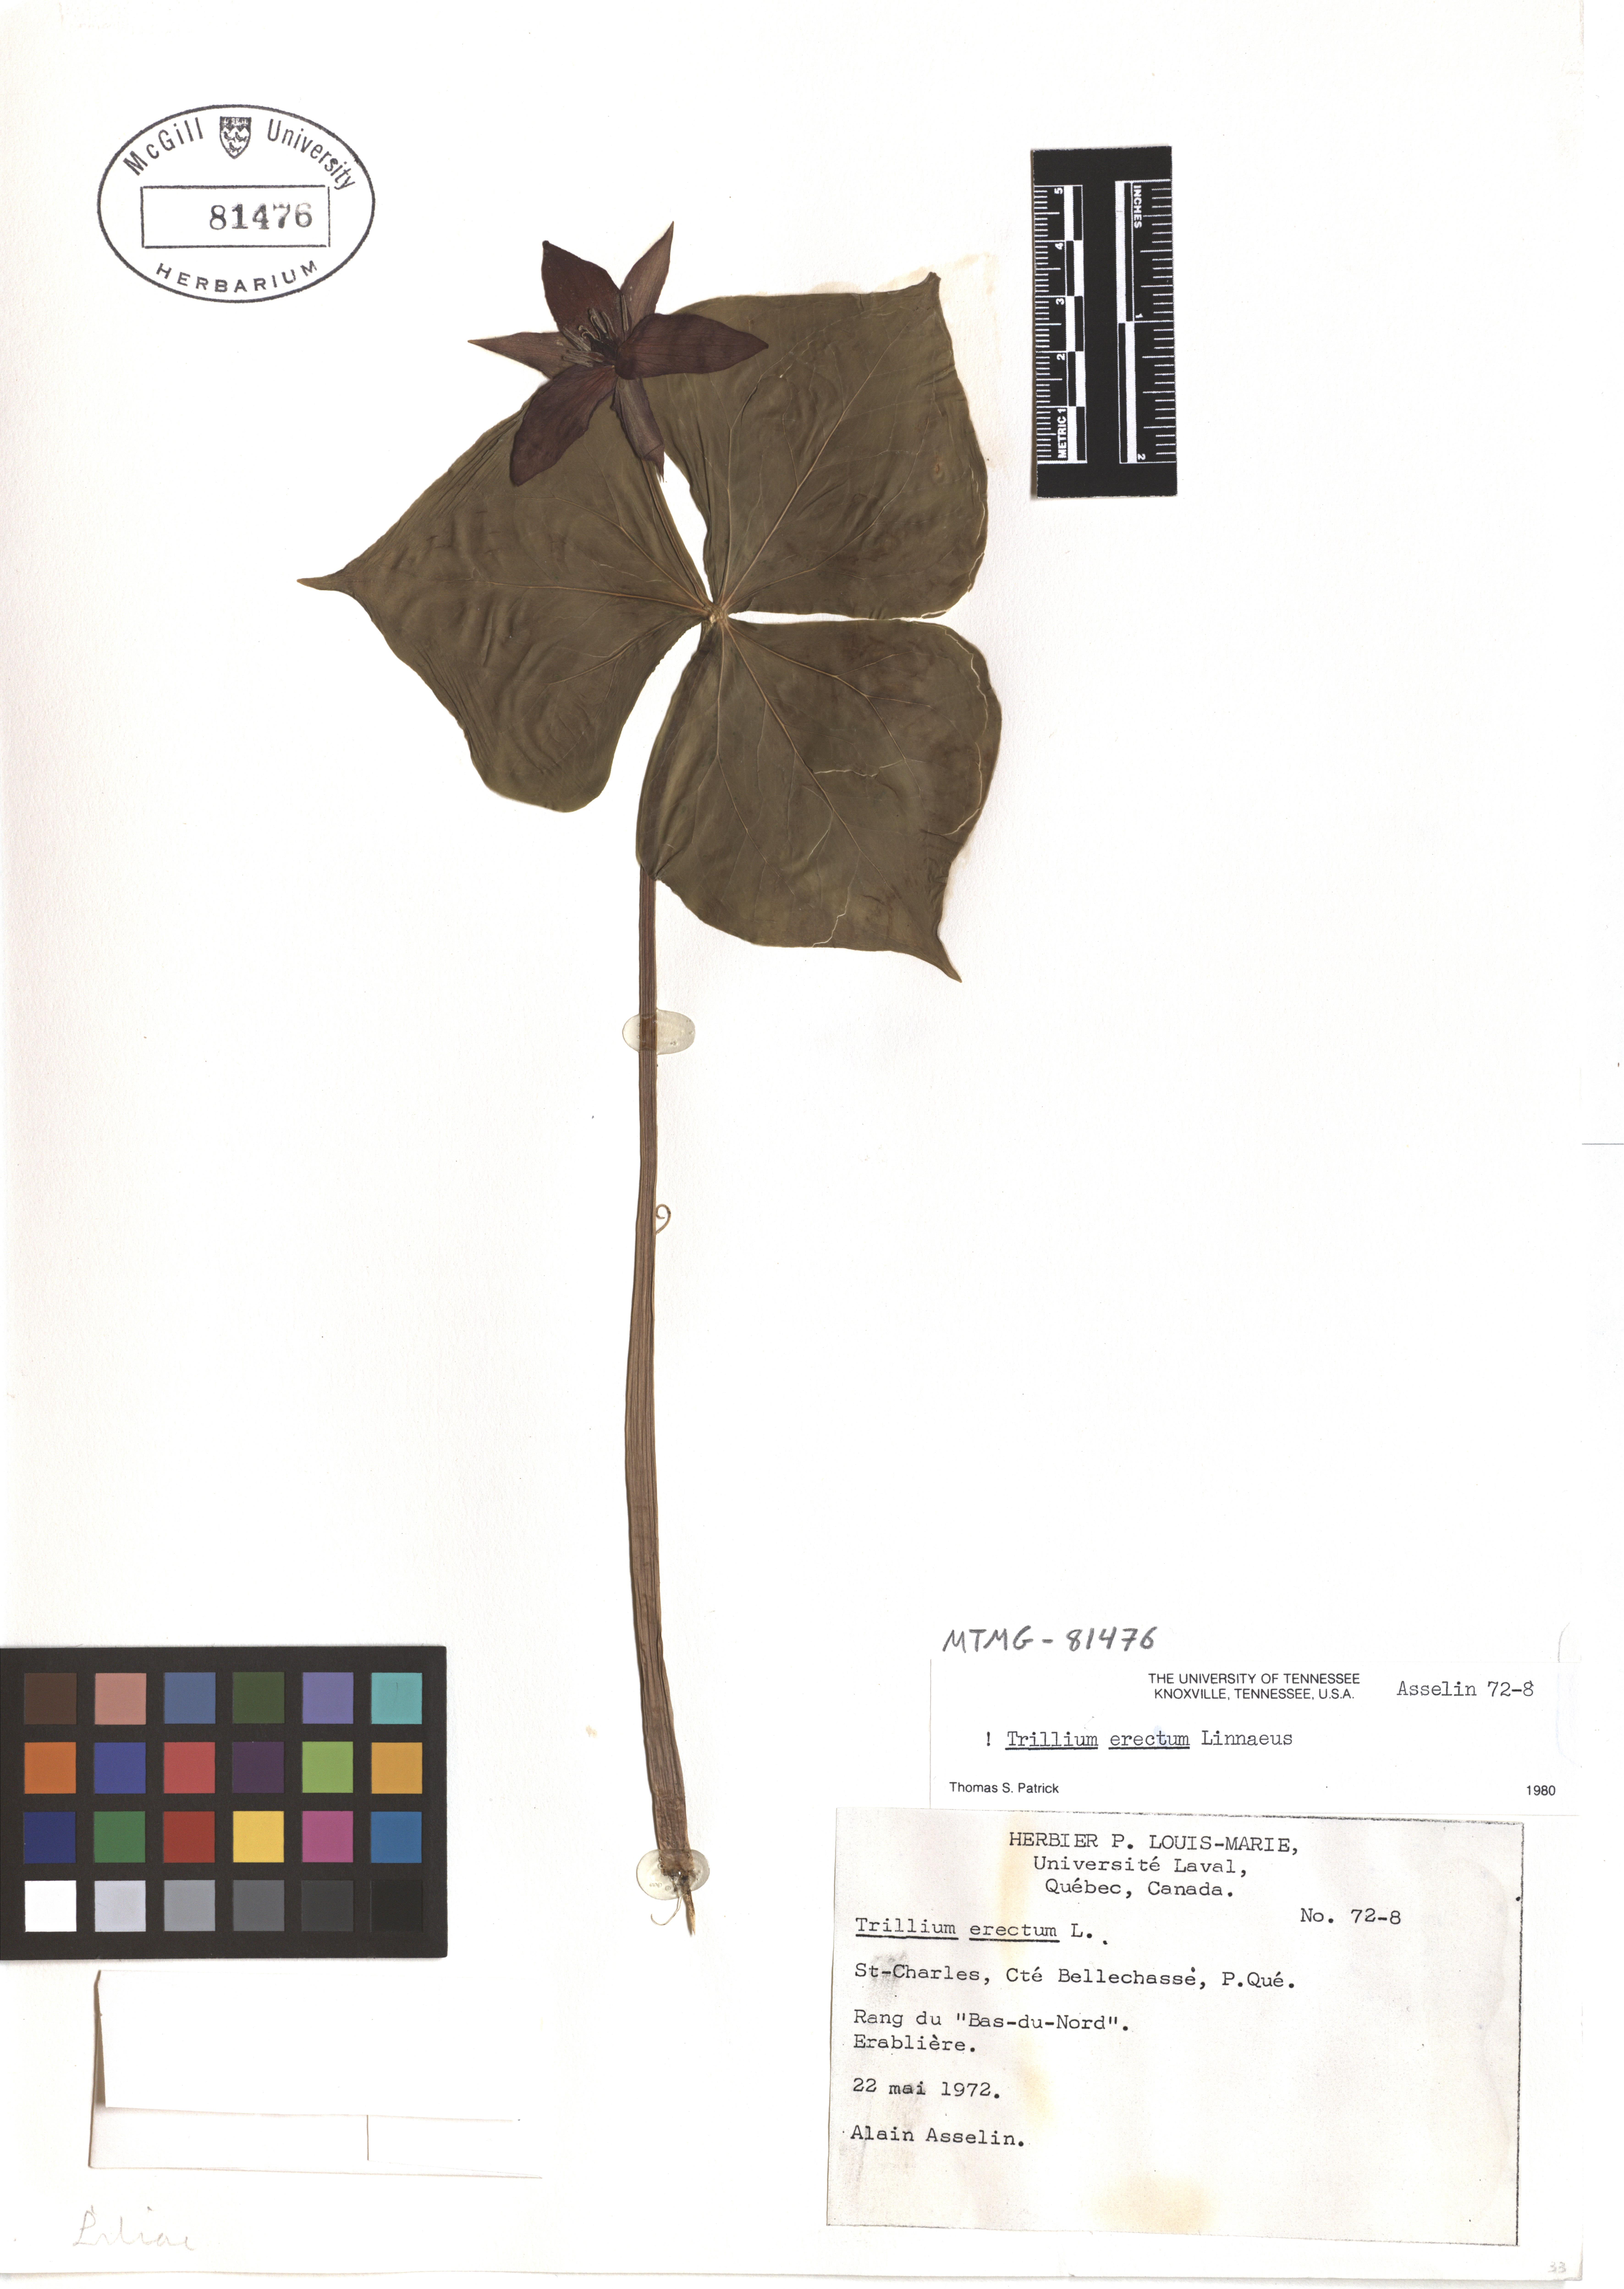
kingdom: Plantae
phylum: Tracheophyta
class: Liliopsida
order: Liliales
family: Melanthiaceae
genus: Trillium
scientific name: Trillium erectum
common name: Purple trillium
